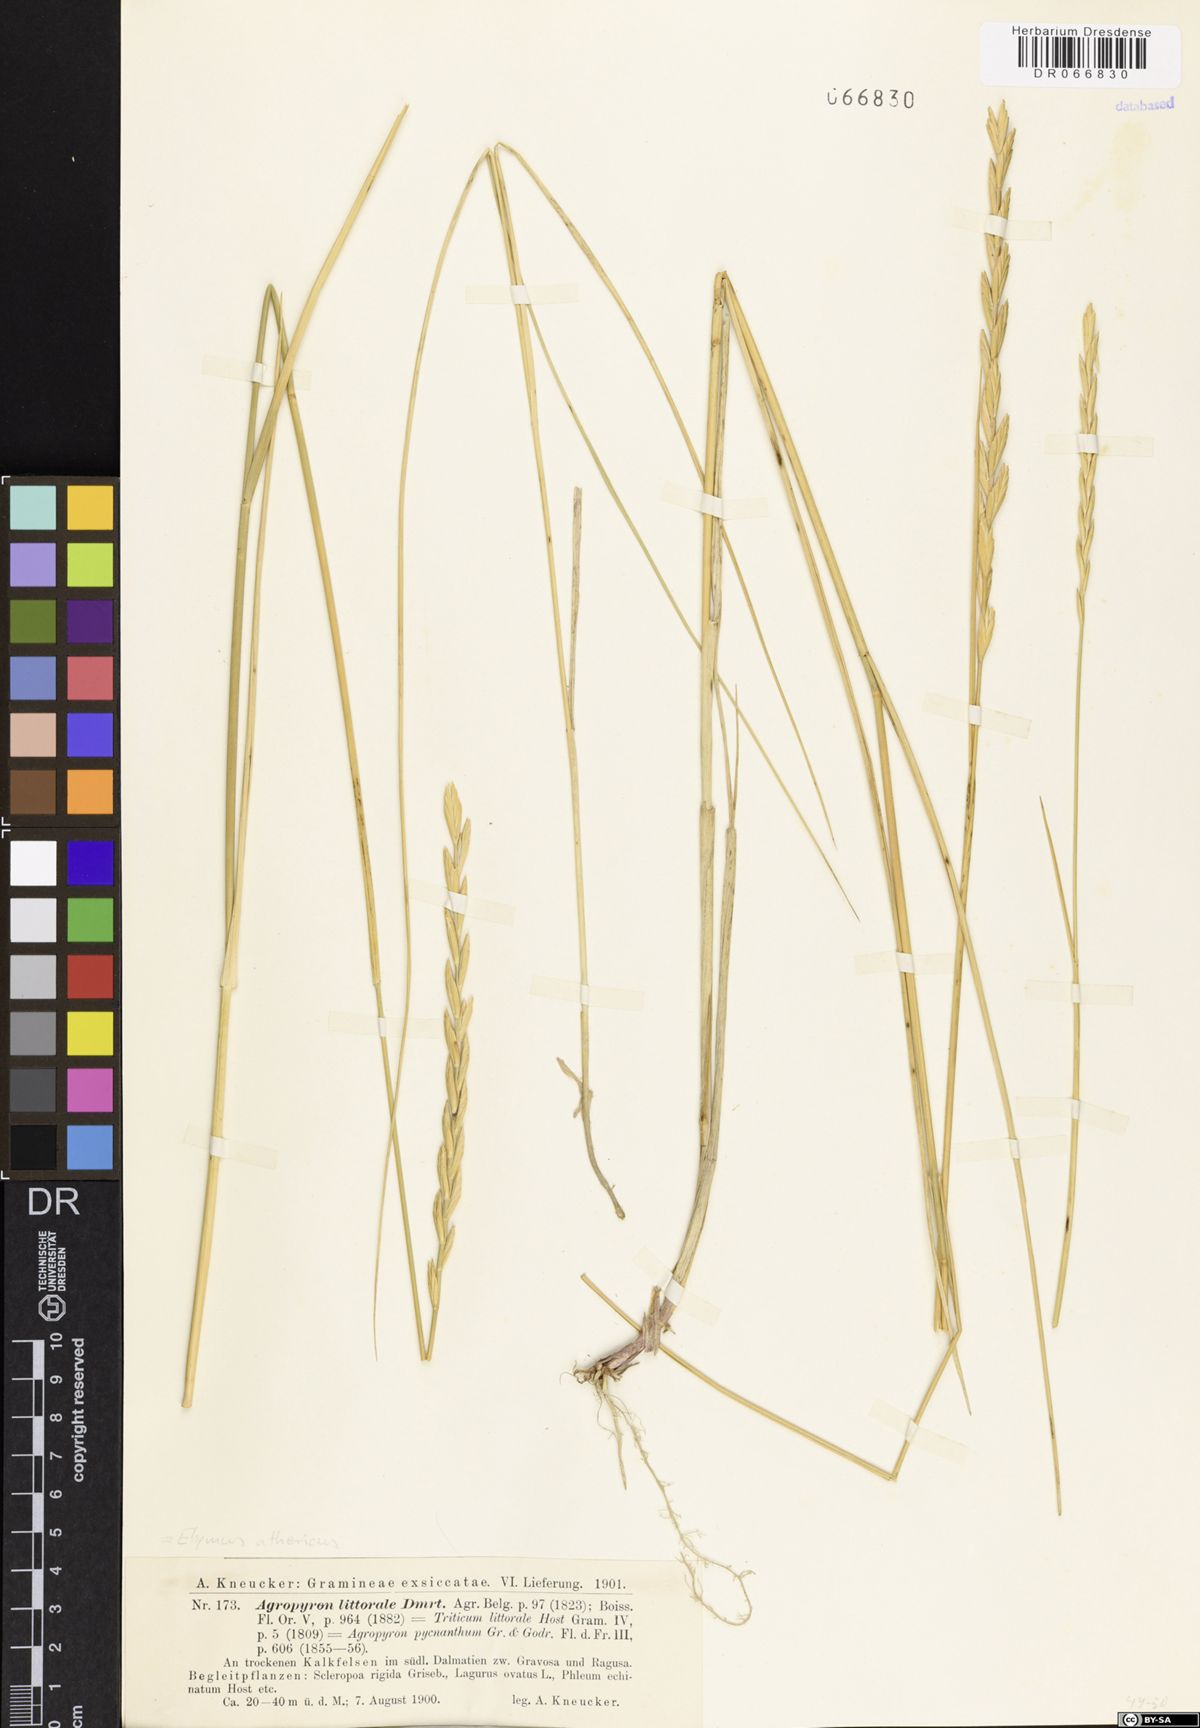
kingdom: Plantae
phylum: Tracheophyta
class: Liliopsida
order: Poales
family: Poaceae
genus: Elymus
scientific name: Elymus athericus
